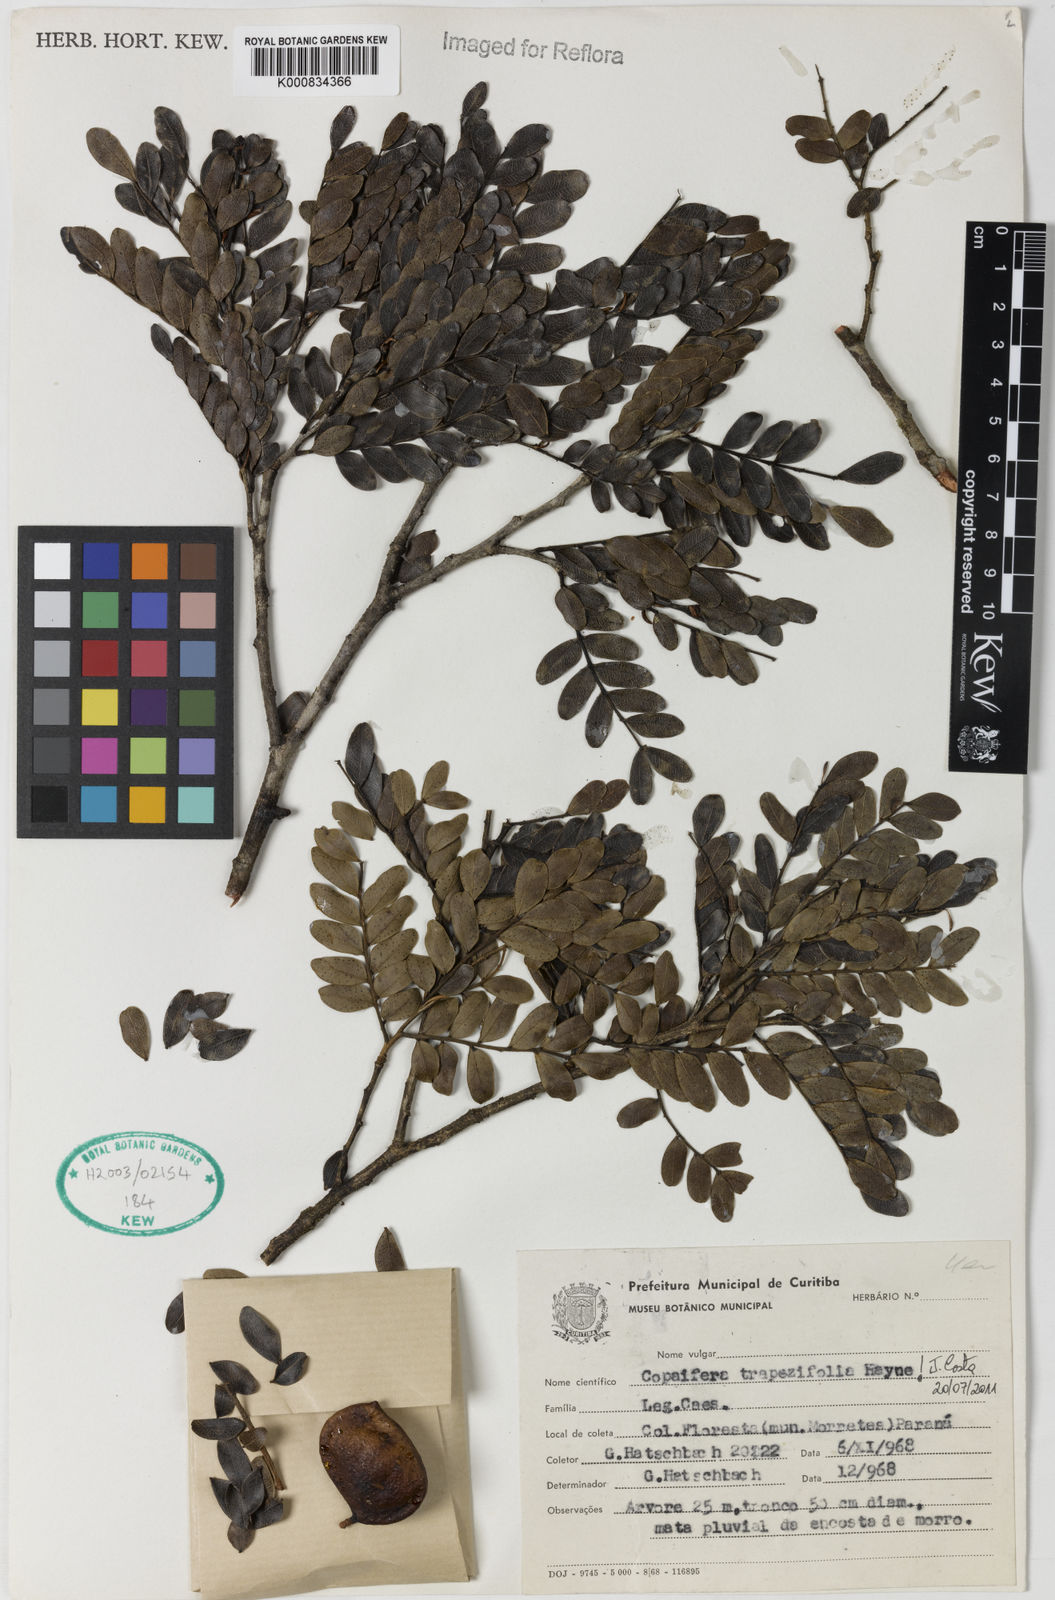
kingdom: Plantae
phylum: Tracheophyta
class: Magnoliopsida
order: Fabales
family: Fabaceae
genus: Copaifera
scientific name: Copaifera trapezifolia
